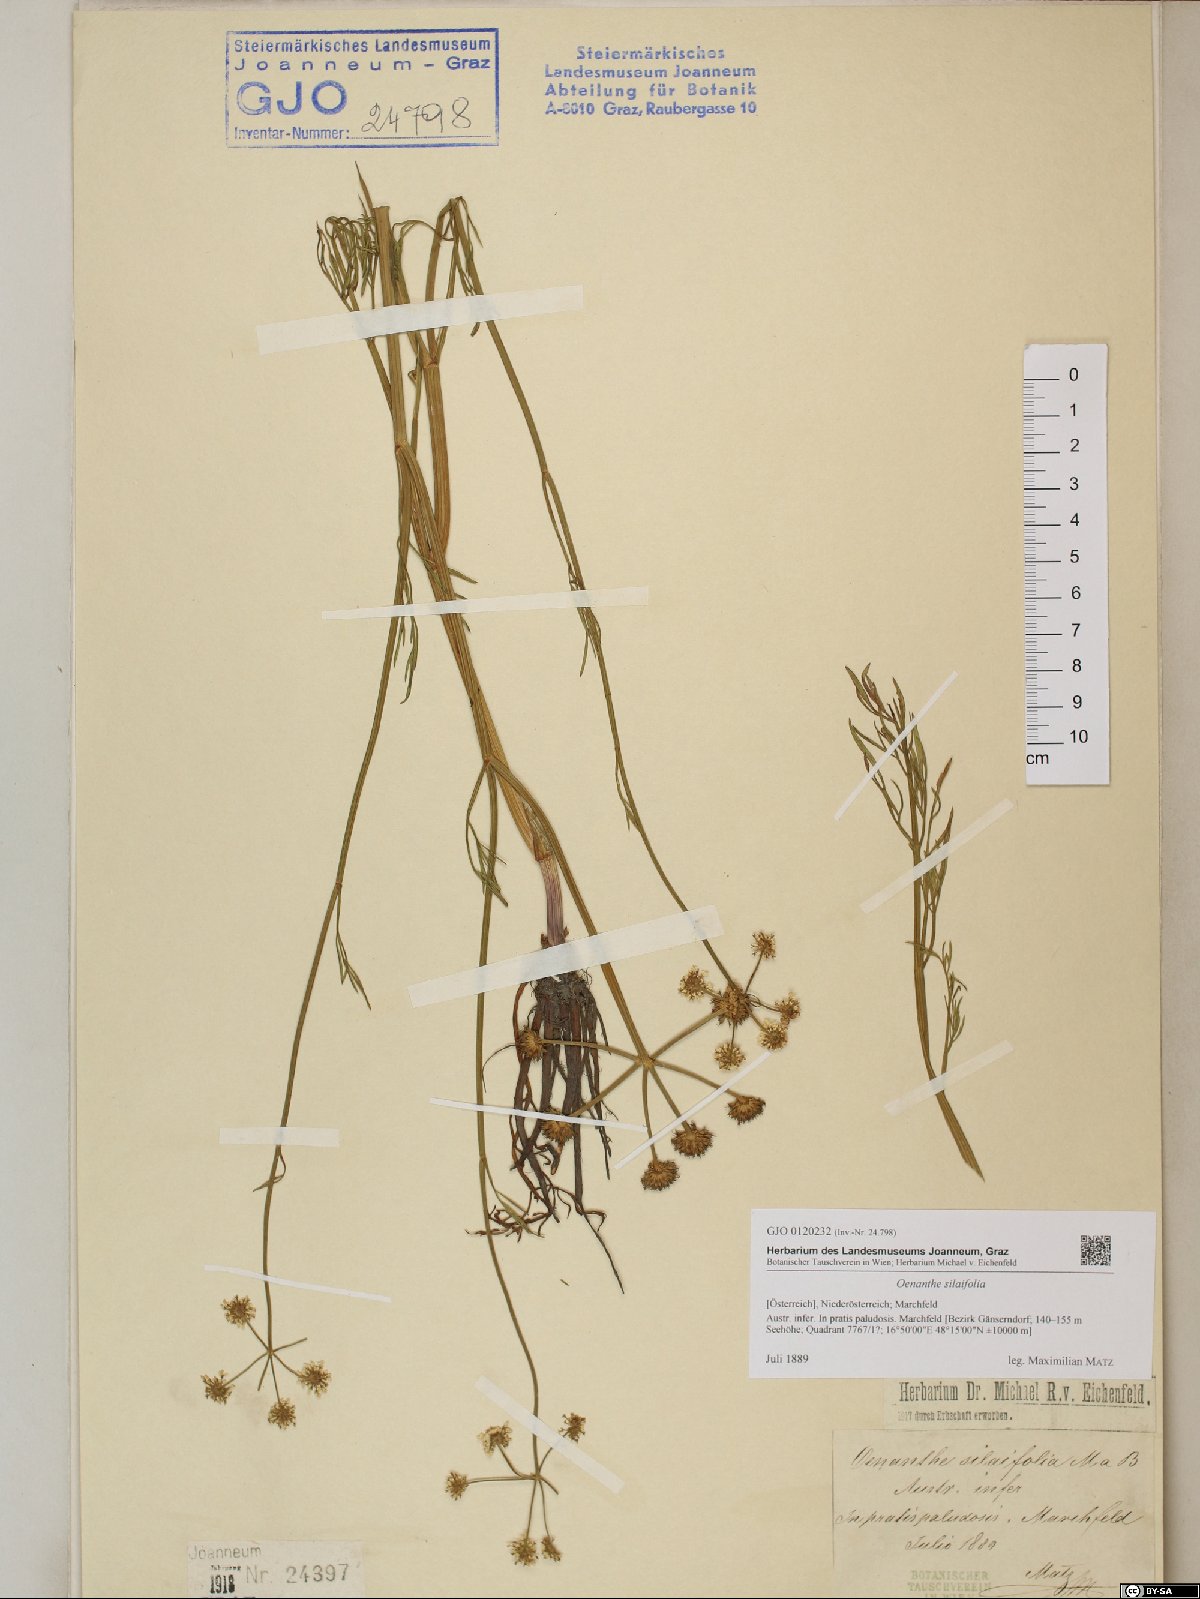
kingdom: Plantae
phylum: Tracheophyta
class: Magnoliopsida
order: Apiales
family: Apiaceae
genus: Oenanthe
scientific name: Oenanthe silaifolia
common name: Narrow-leaved water-dropwort
